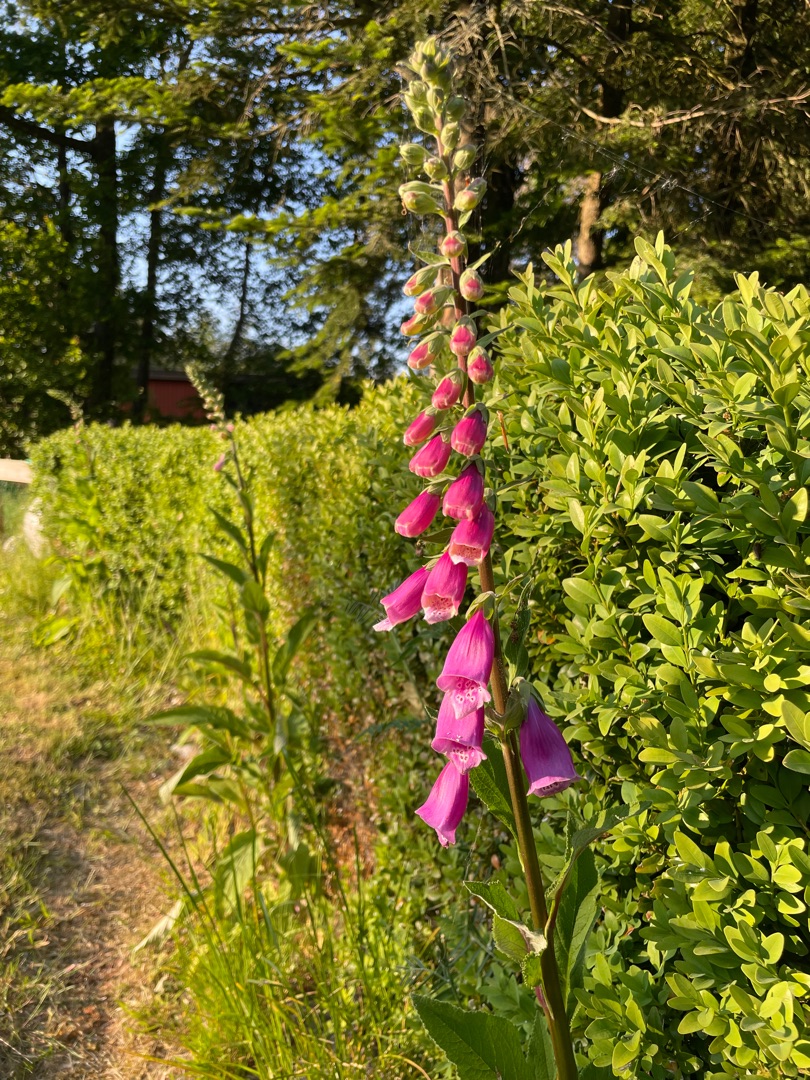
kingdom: Plantae
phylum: Tracheophyta
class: Magnoliopsida
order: Lamiales
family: Plantaginaceae
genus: Digitalis
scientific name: Digitalis purpurea
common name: Almindelig fingerbøl
